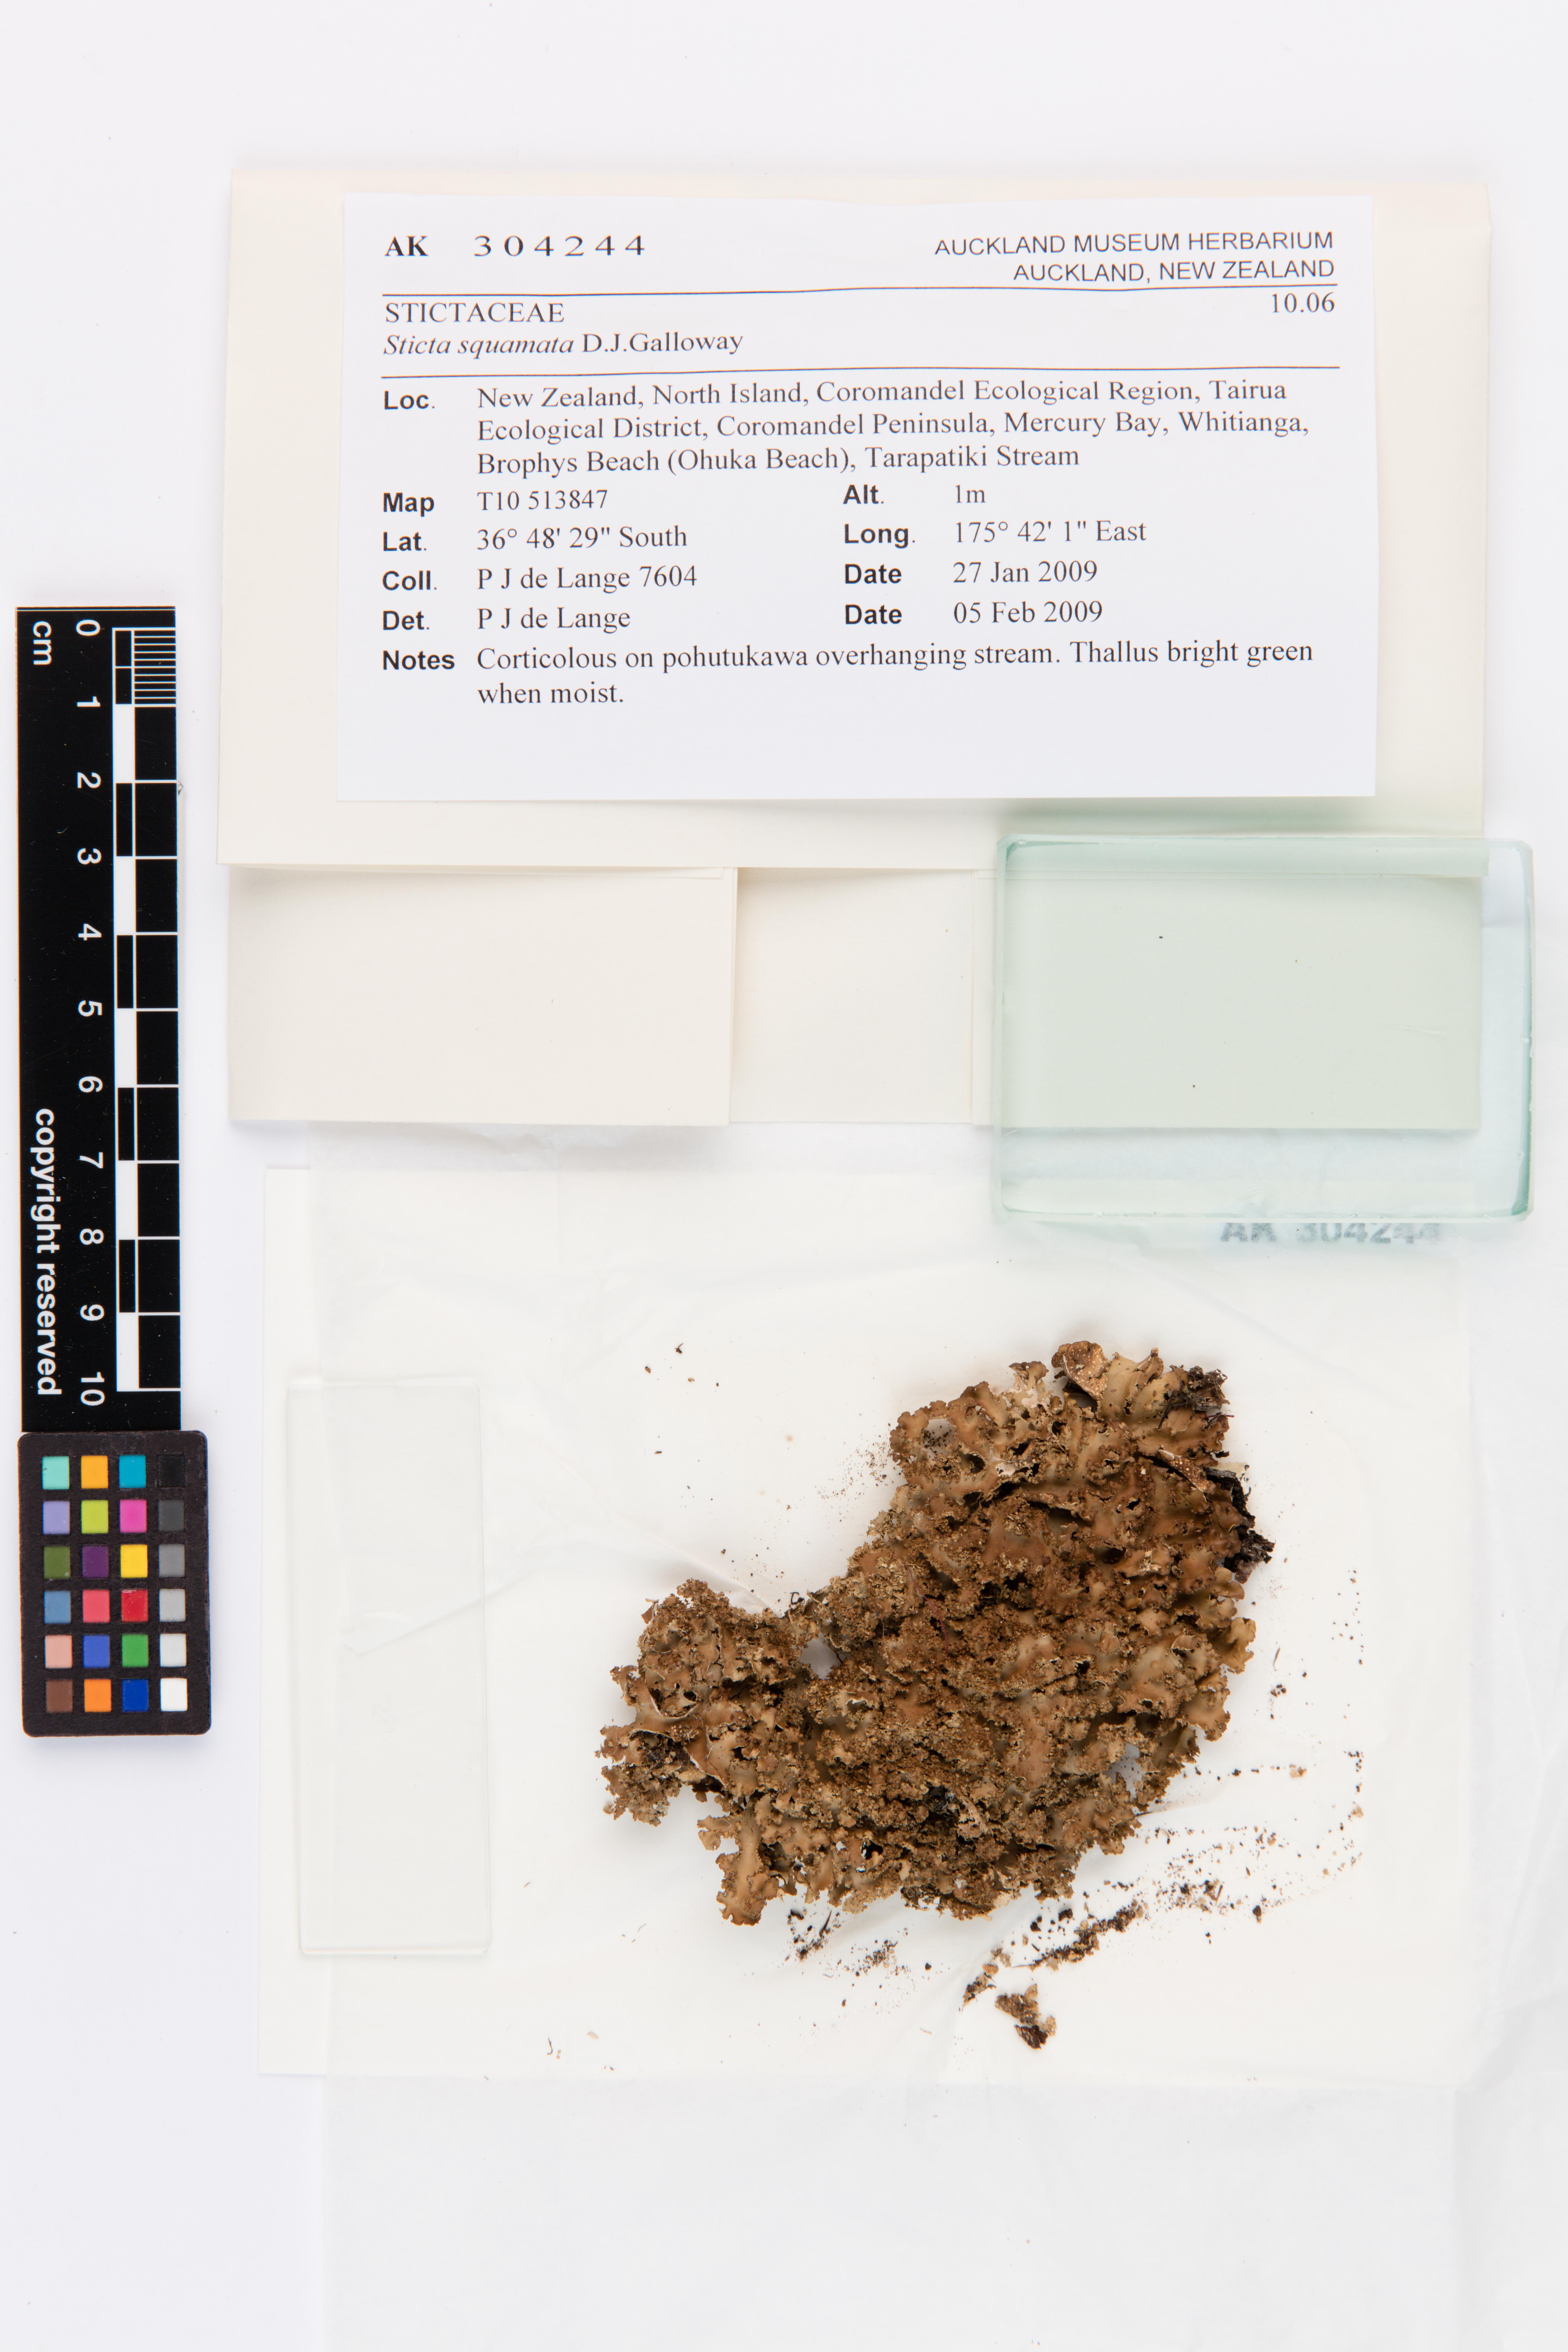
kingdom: Fungi
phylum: Ascomycota
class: Lecanoromycetes
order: Peltigerales
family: Lobariaceae
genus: Sticta
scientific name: Sticta squamata
